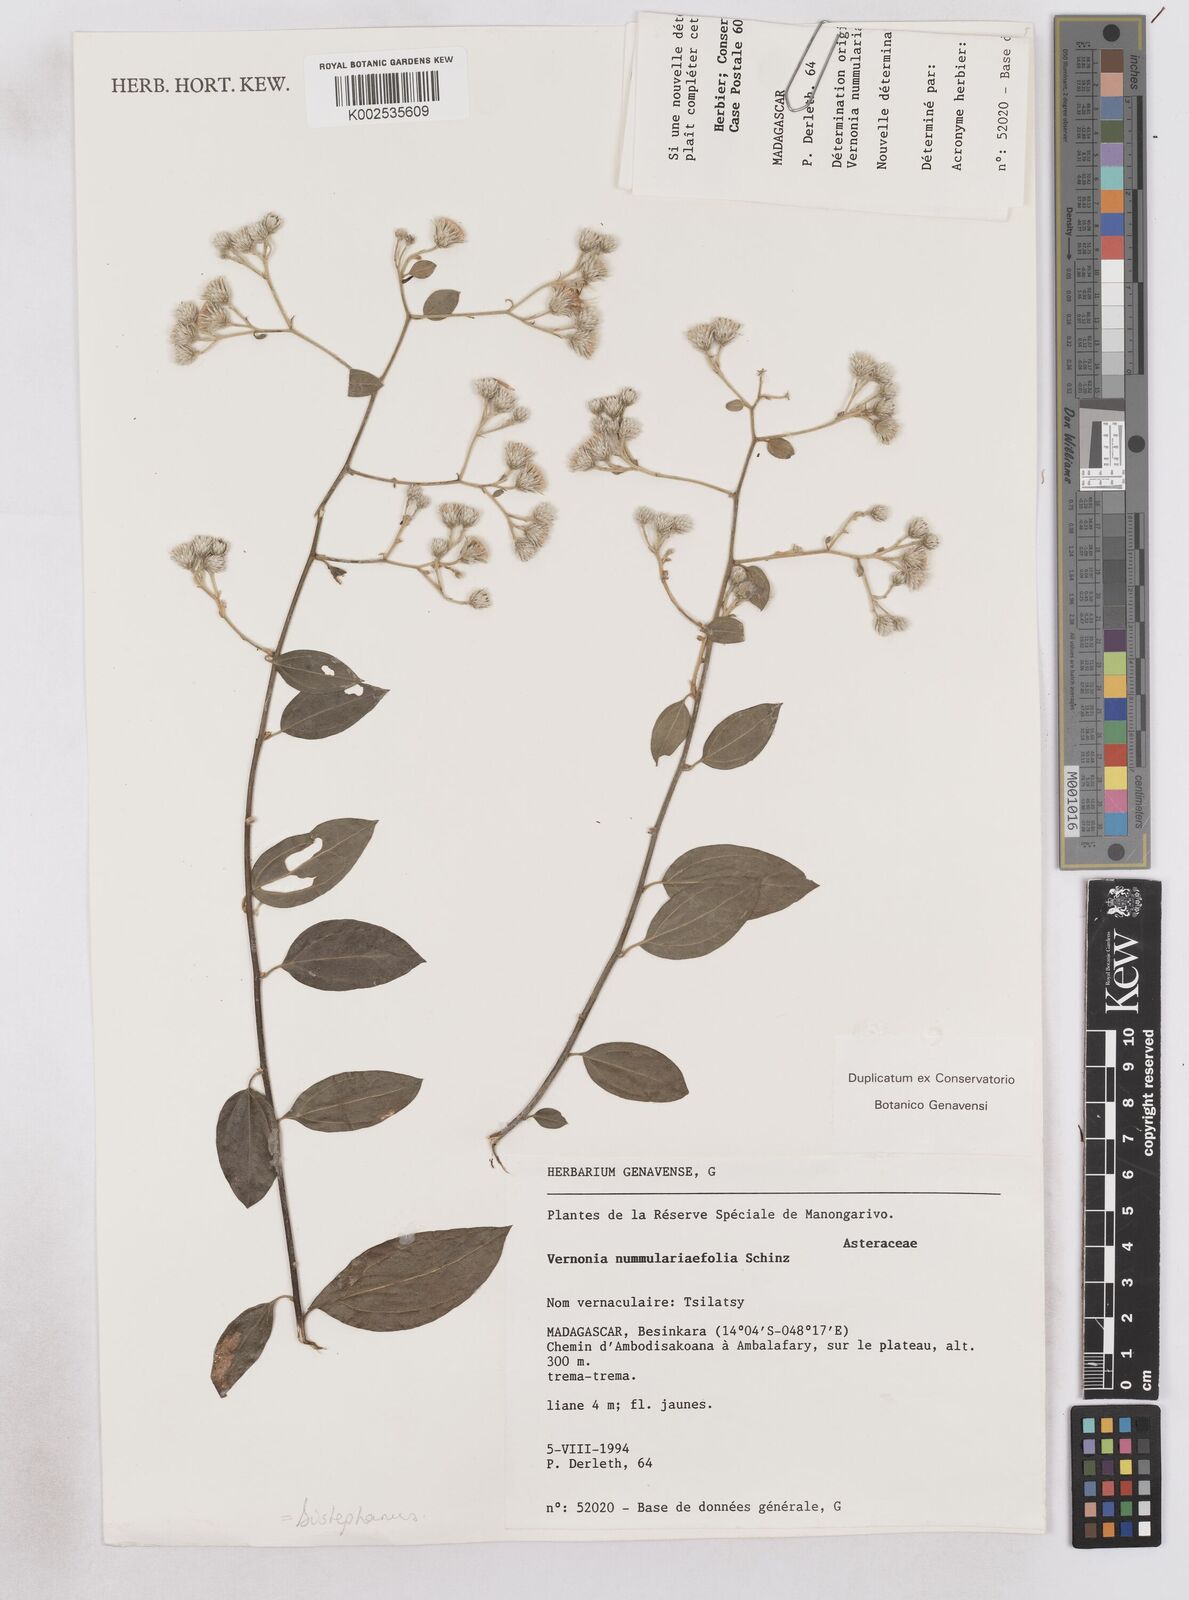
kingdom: Plantae
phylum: Tracheophyta
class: Magnoliopsida
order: Asterales
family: Asteraceae
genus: Distephanus
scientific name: Distephanus nummulariifolius
